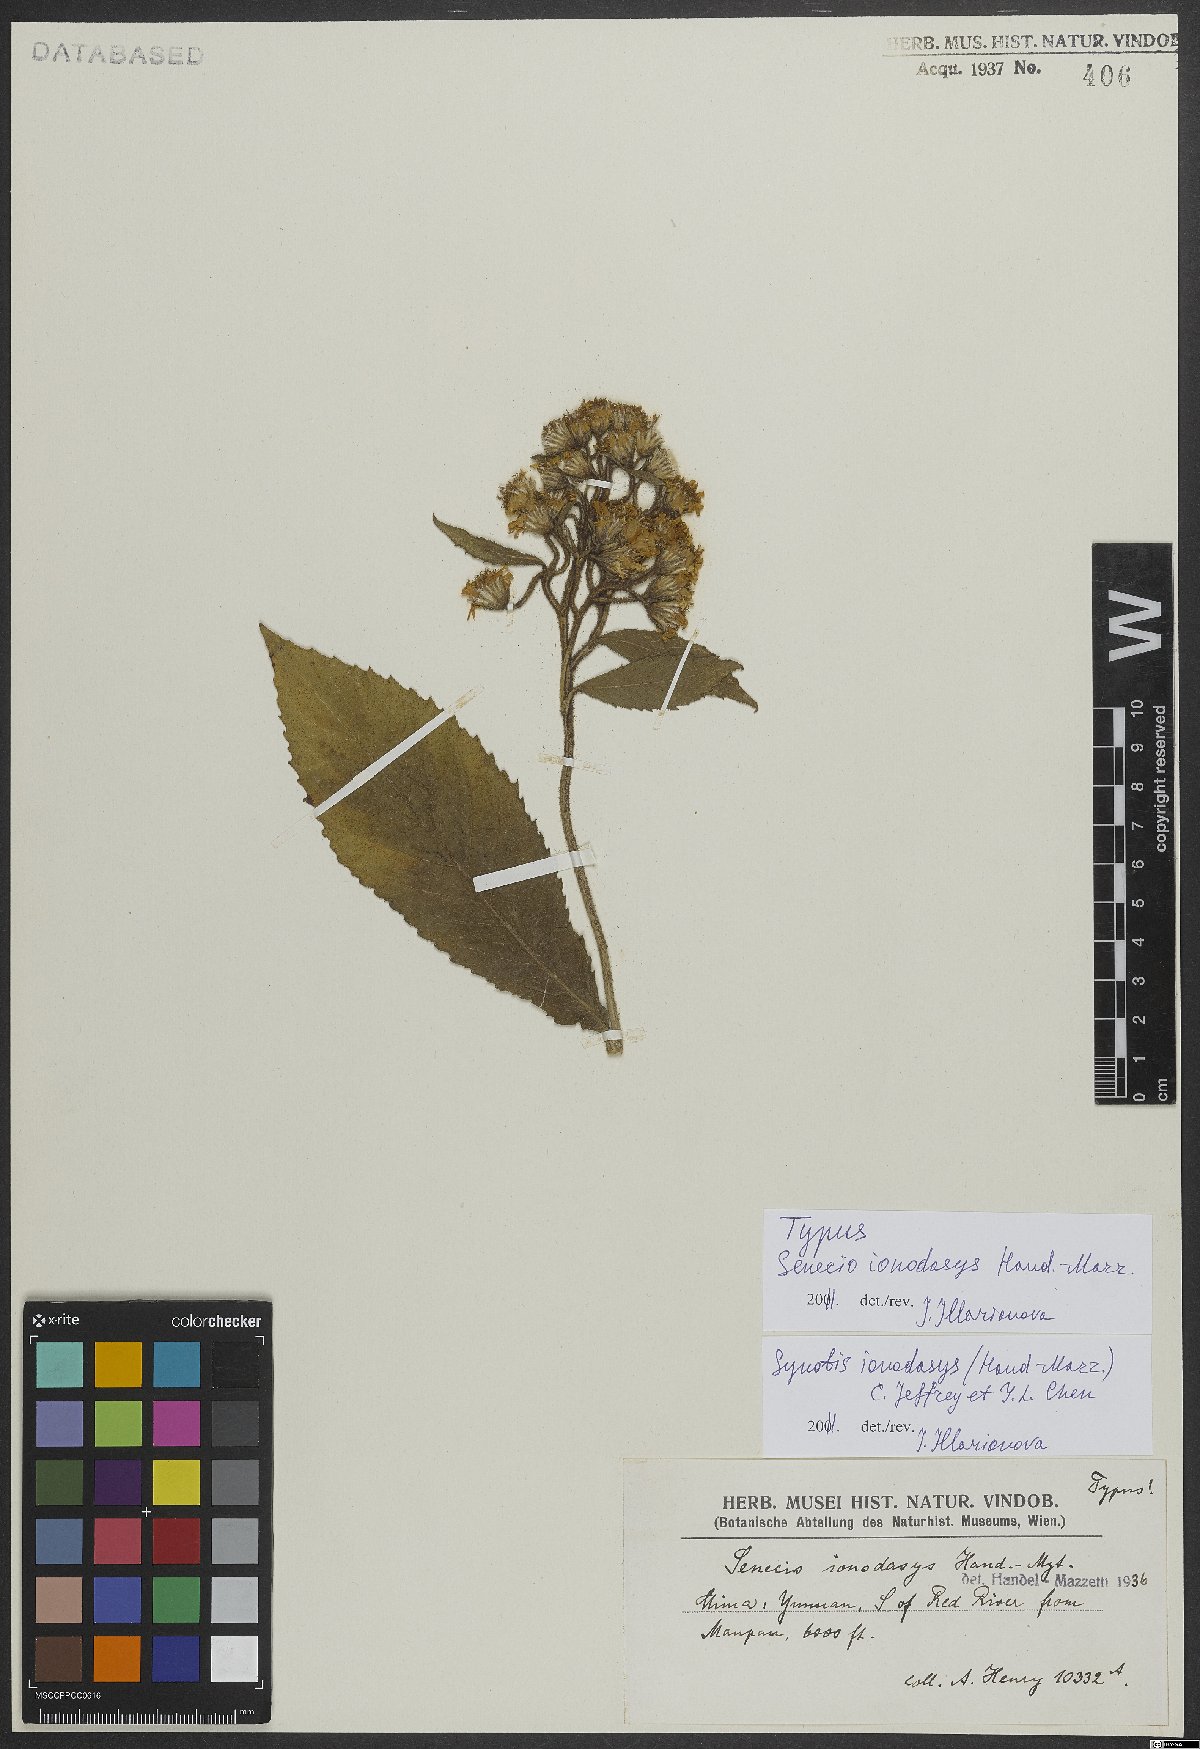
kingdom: Plantae
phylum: Tracheophyta
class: Magnoliopsida
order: Asterales
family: Asteraceae
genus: Synotis
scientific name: Synotis cappa
